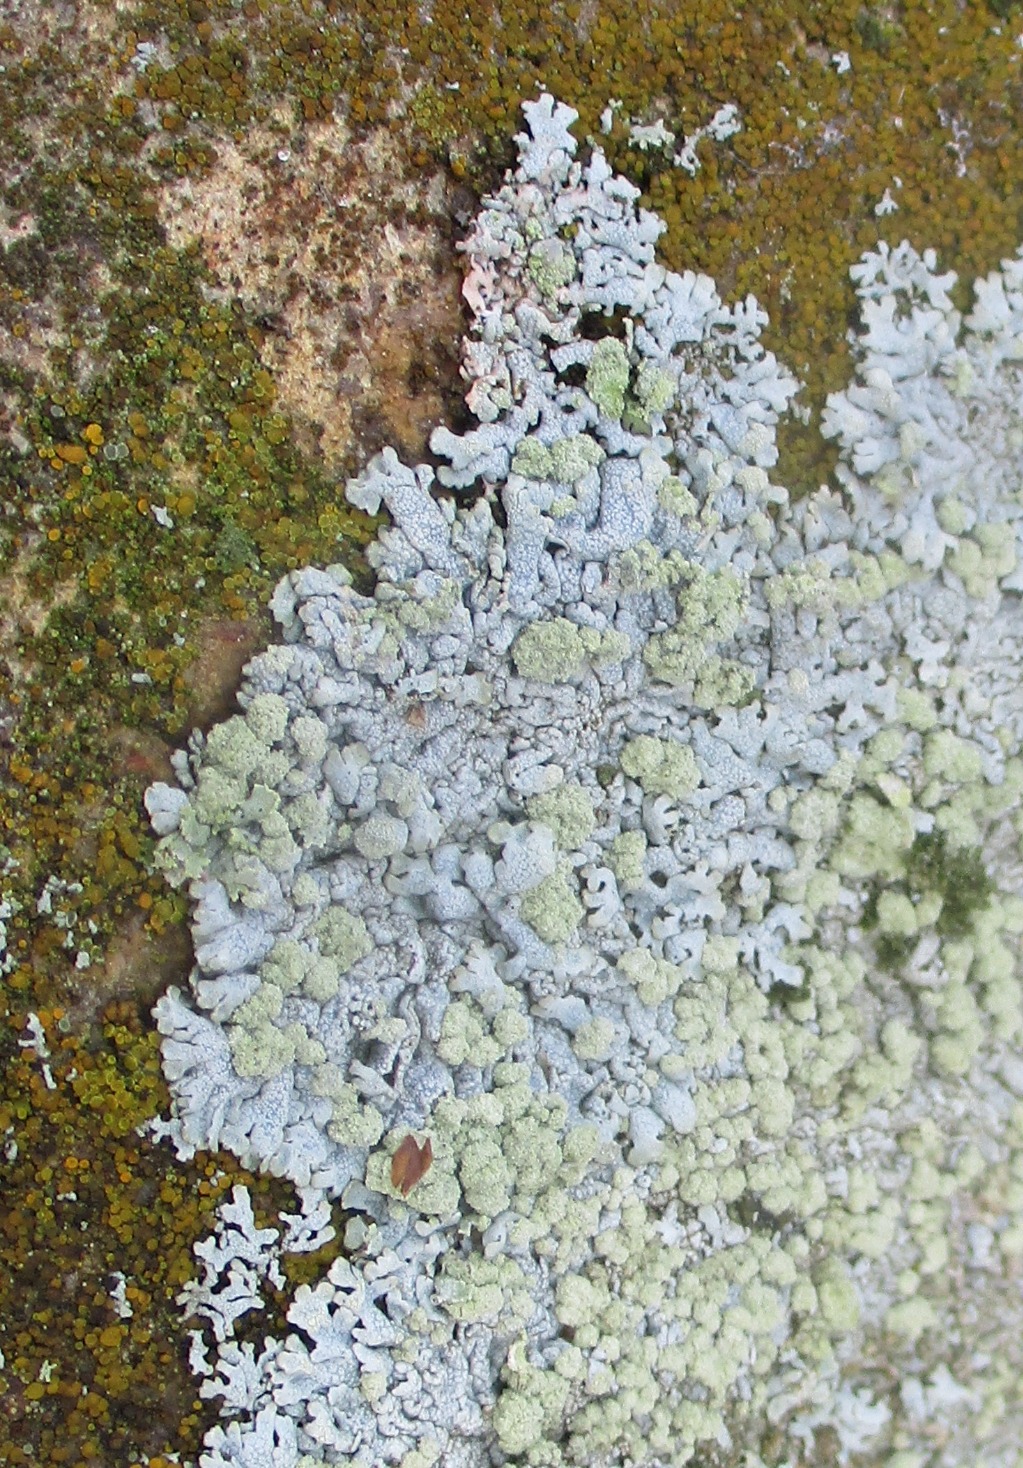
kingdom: Fungi
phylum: Ascomycota
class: Lecanoromycetes
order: Caliciales
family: Physciaceae
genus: Physcia
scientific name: Physcia caesia
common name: Blågrå rosetlav
